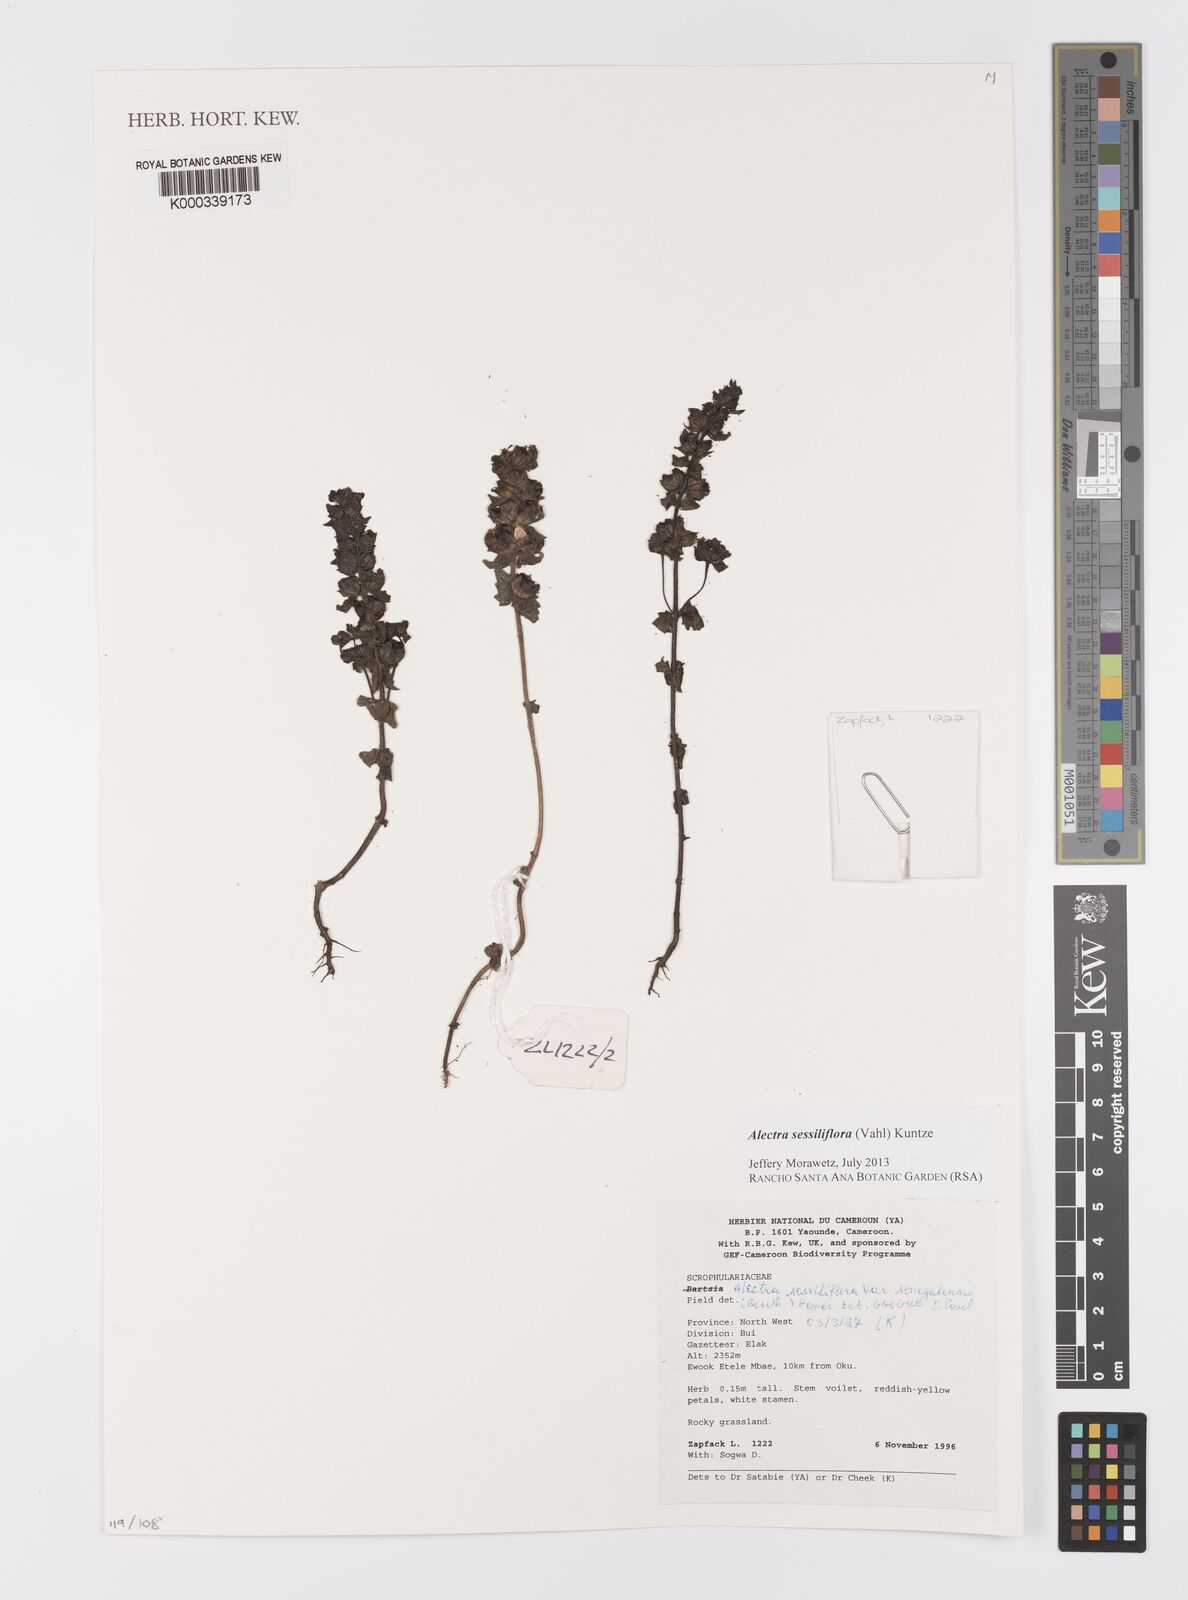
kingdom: Plantae
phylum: Tracheophyta
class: Magnoliopsida
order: Lamiales
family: Orobanchaceae
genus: Alectra
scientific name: Alectra sessiliflora
